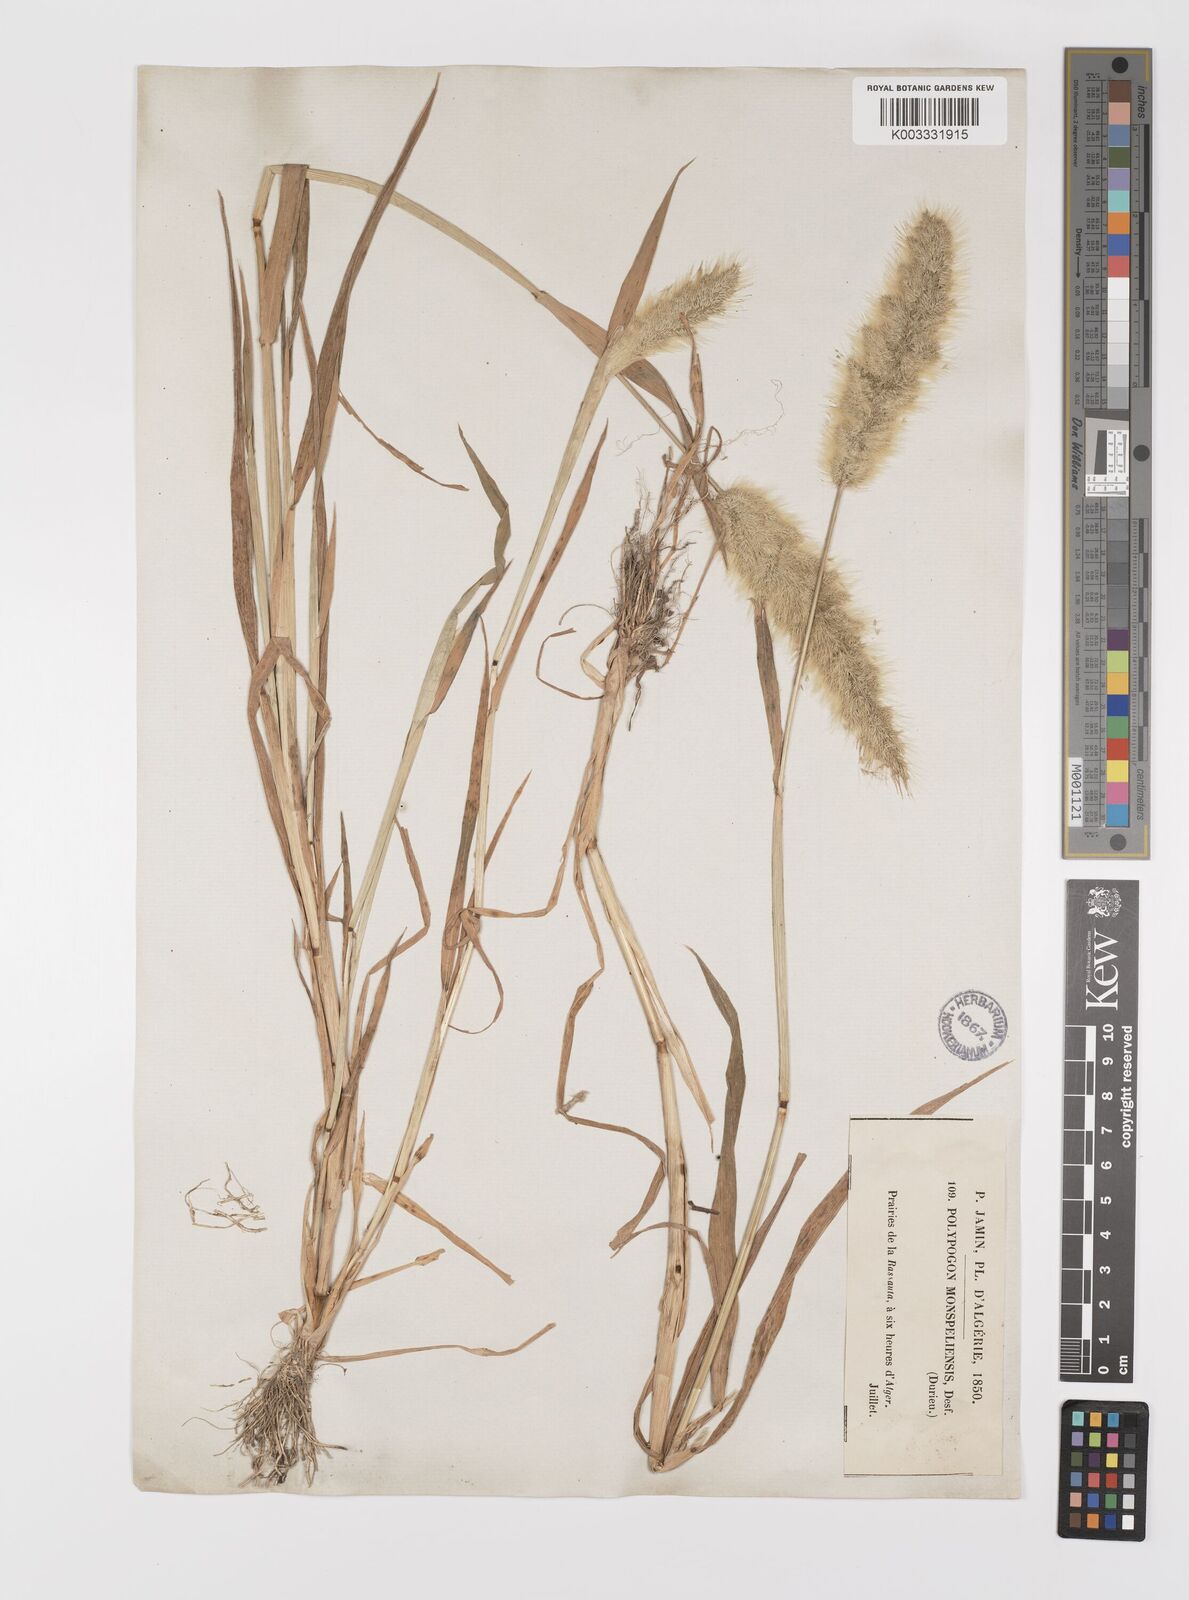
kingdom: Plantae
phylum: Tracheophyta
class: Liliopsida
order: Poales
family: Poaceae
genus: Polypogon
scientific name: Polypogon monspeliensis
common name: Annual rabbitsfoot grass
